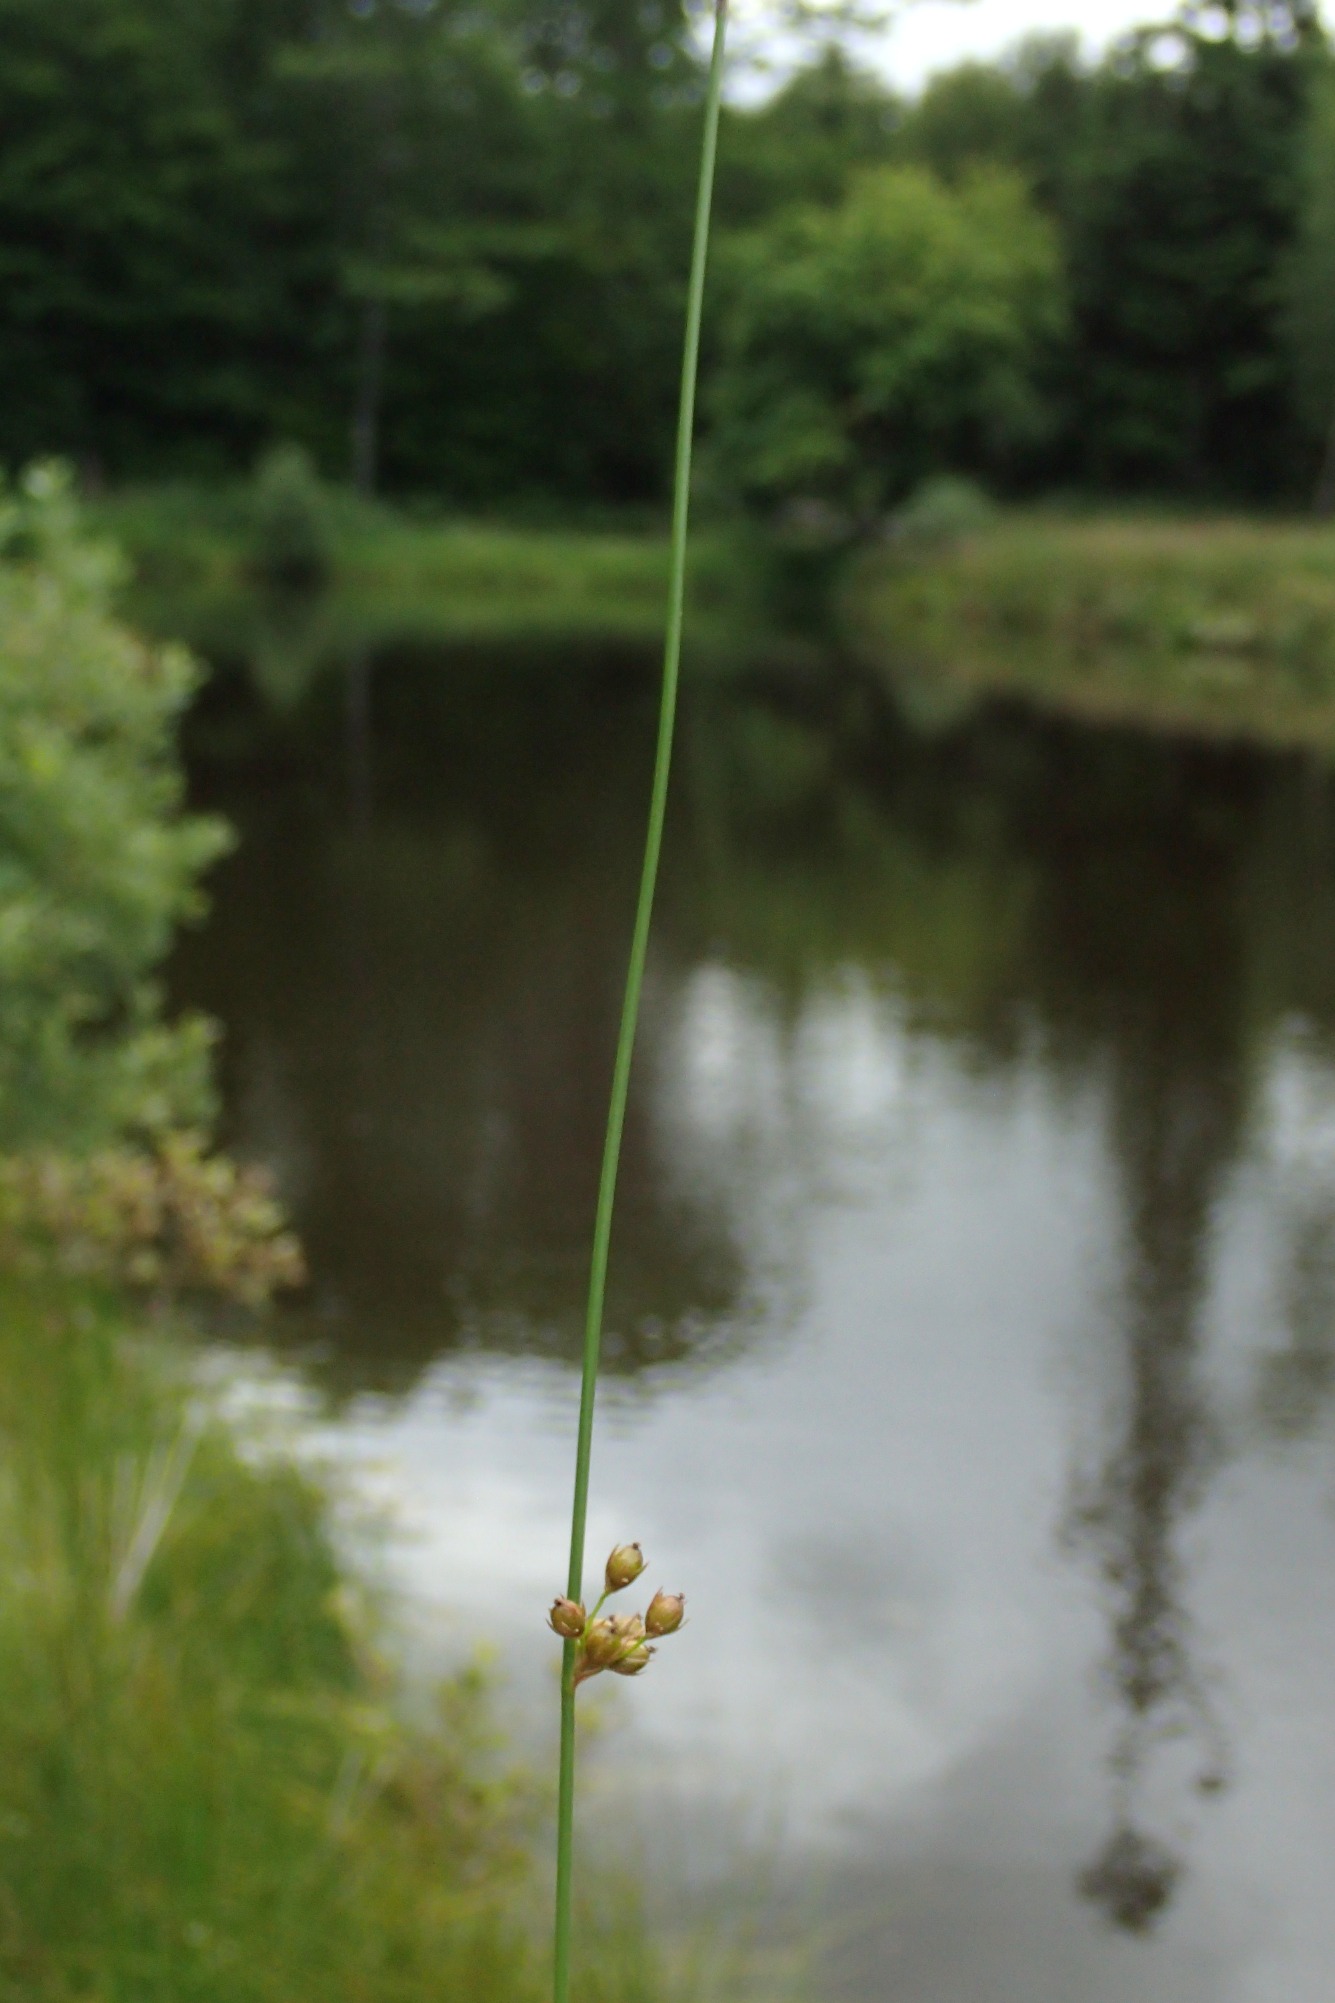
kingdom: Plantae
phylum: Tracheophyta
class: Liliopsida
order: Poales
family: Juncaceae
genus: Juncus
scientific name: Juncus filiformis
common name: Tråd-siv
